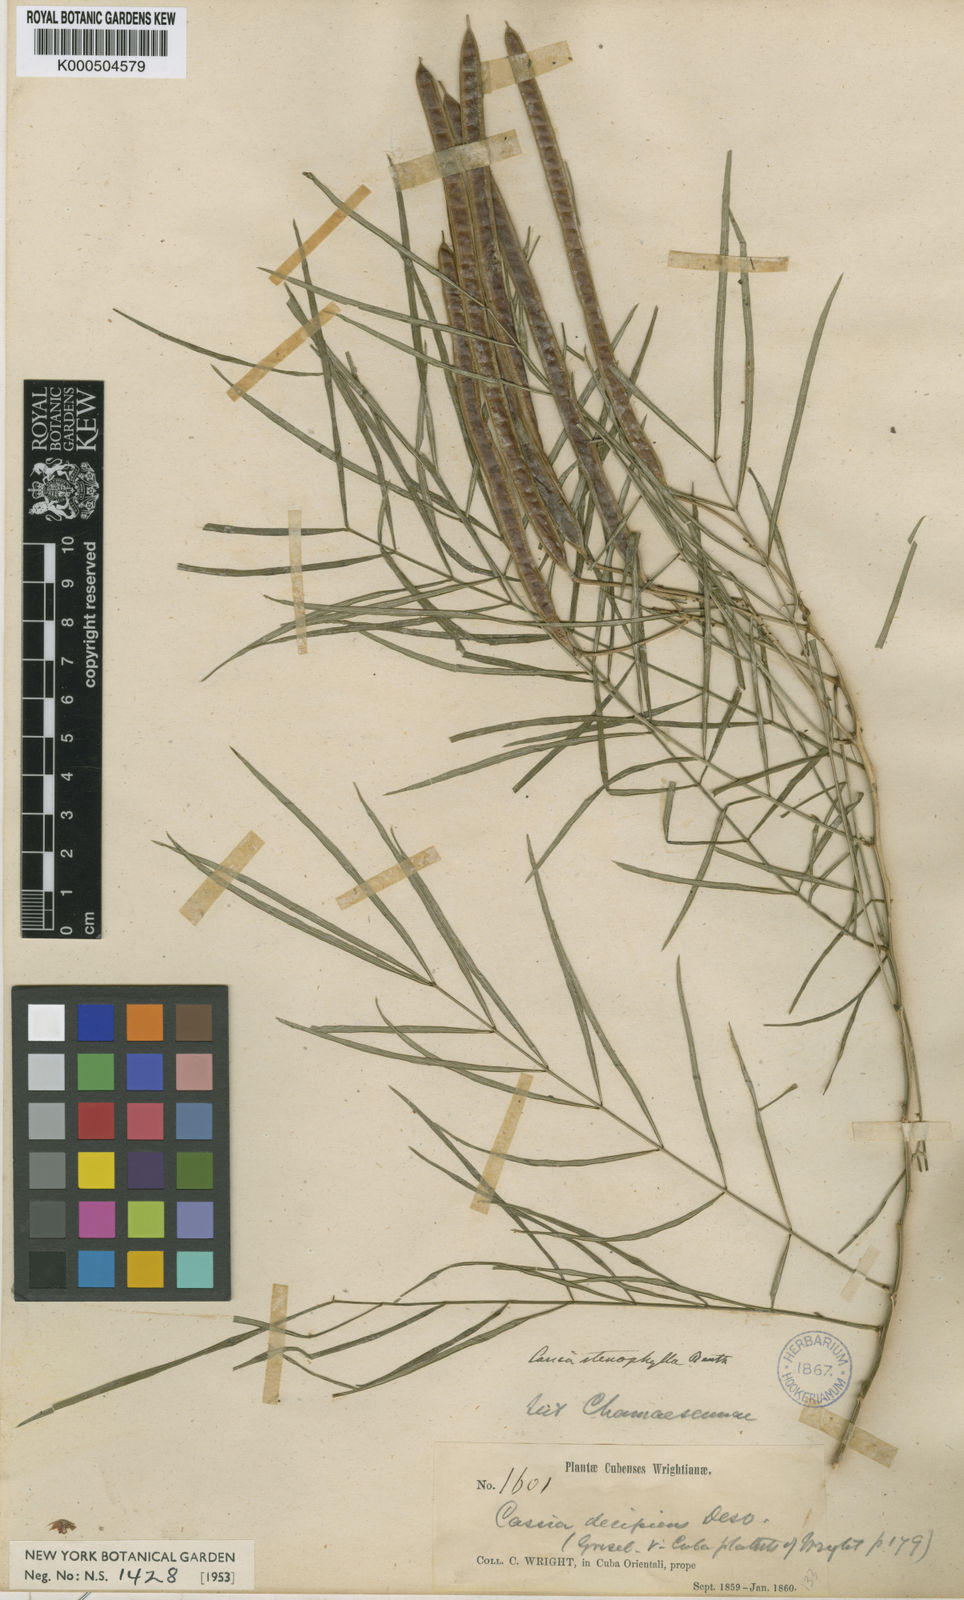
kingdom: Plantae
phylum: Tracheophyta
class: Magnoliopsida
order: Fabales
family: Fabaceae
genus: Senna
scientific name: Senna stenophylla
